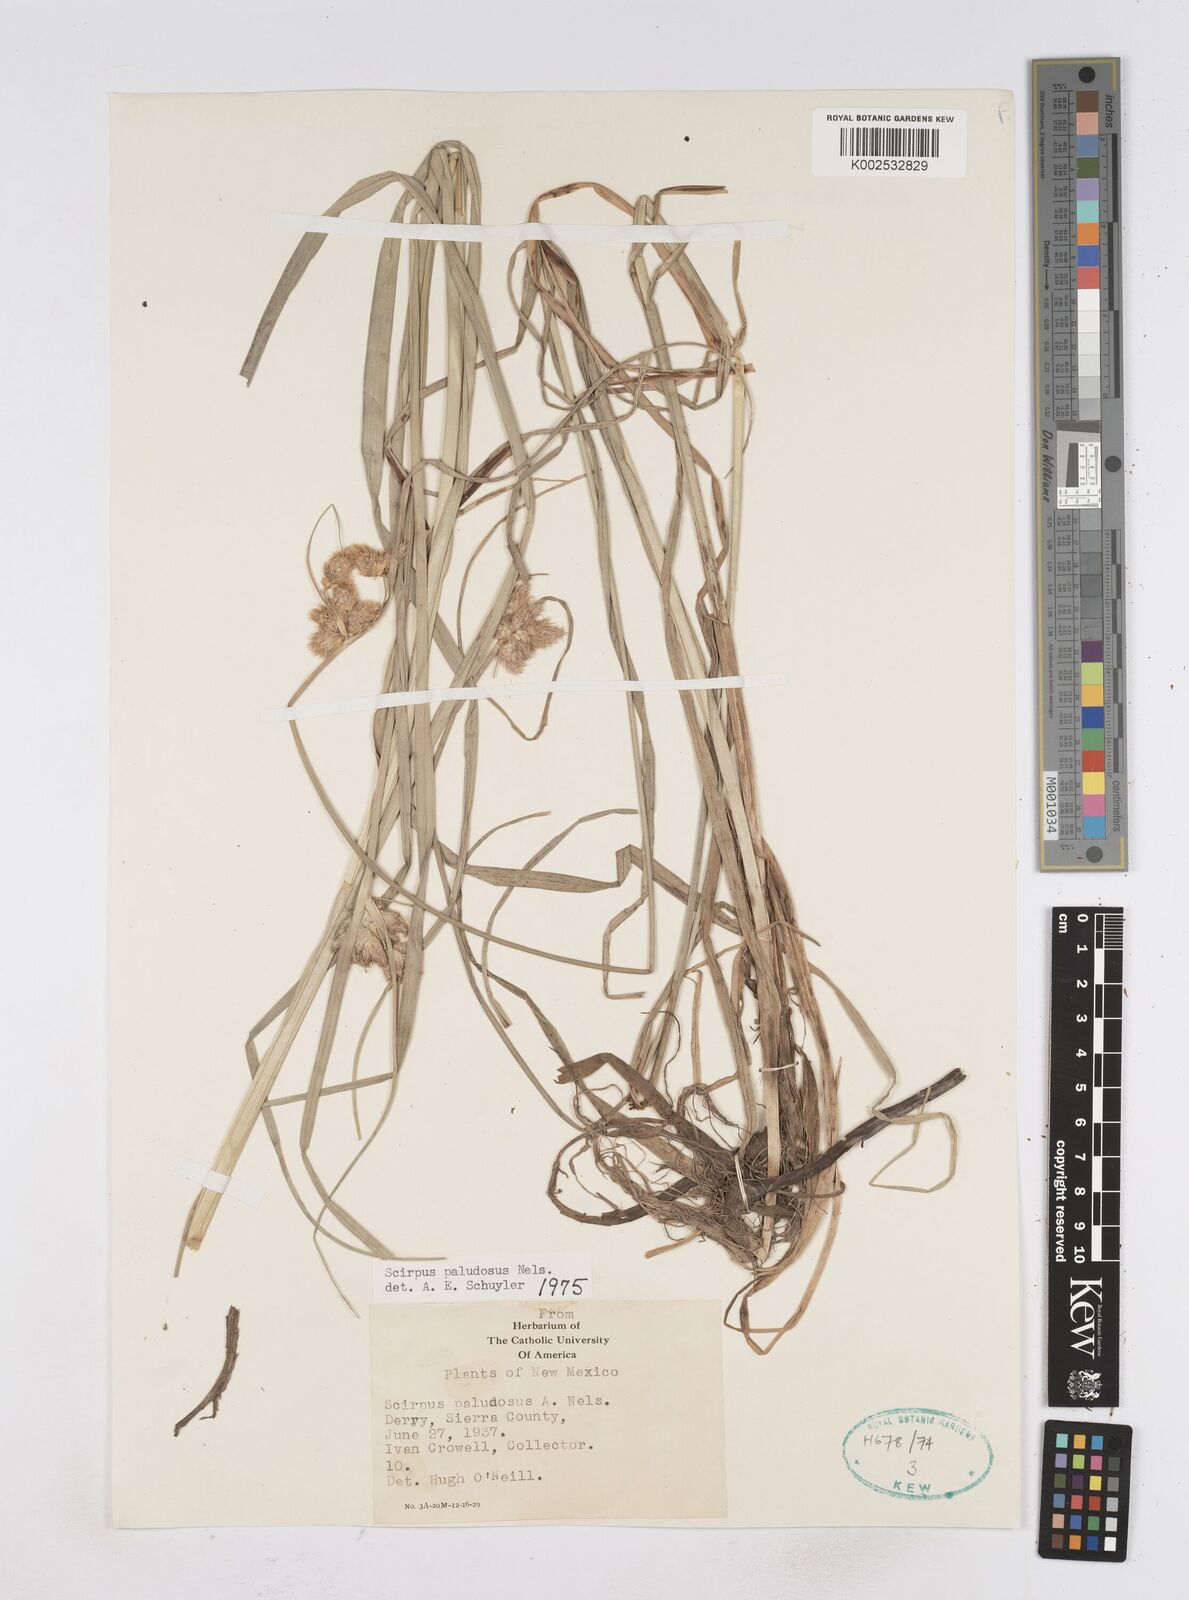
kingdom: Plantae
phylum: Tracheophyta
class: Liliopsida
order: Poales
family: Cyperaceae
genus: Bolboschoenus
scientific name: Bolboschoenus maritimus
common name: Sea club-rush
